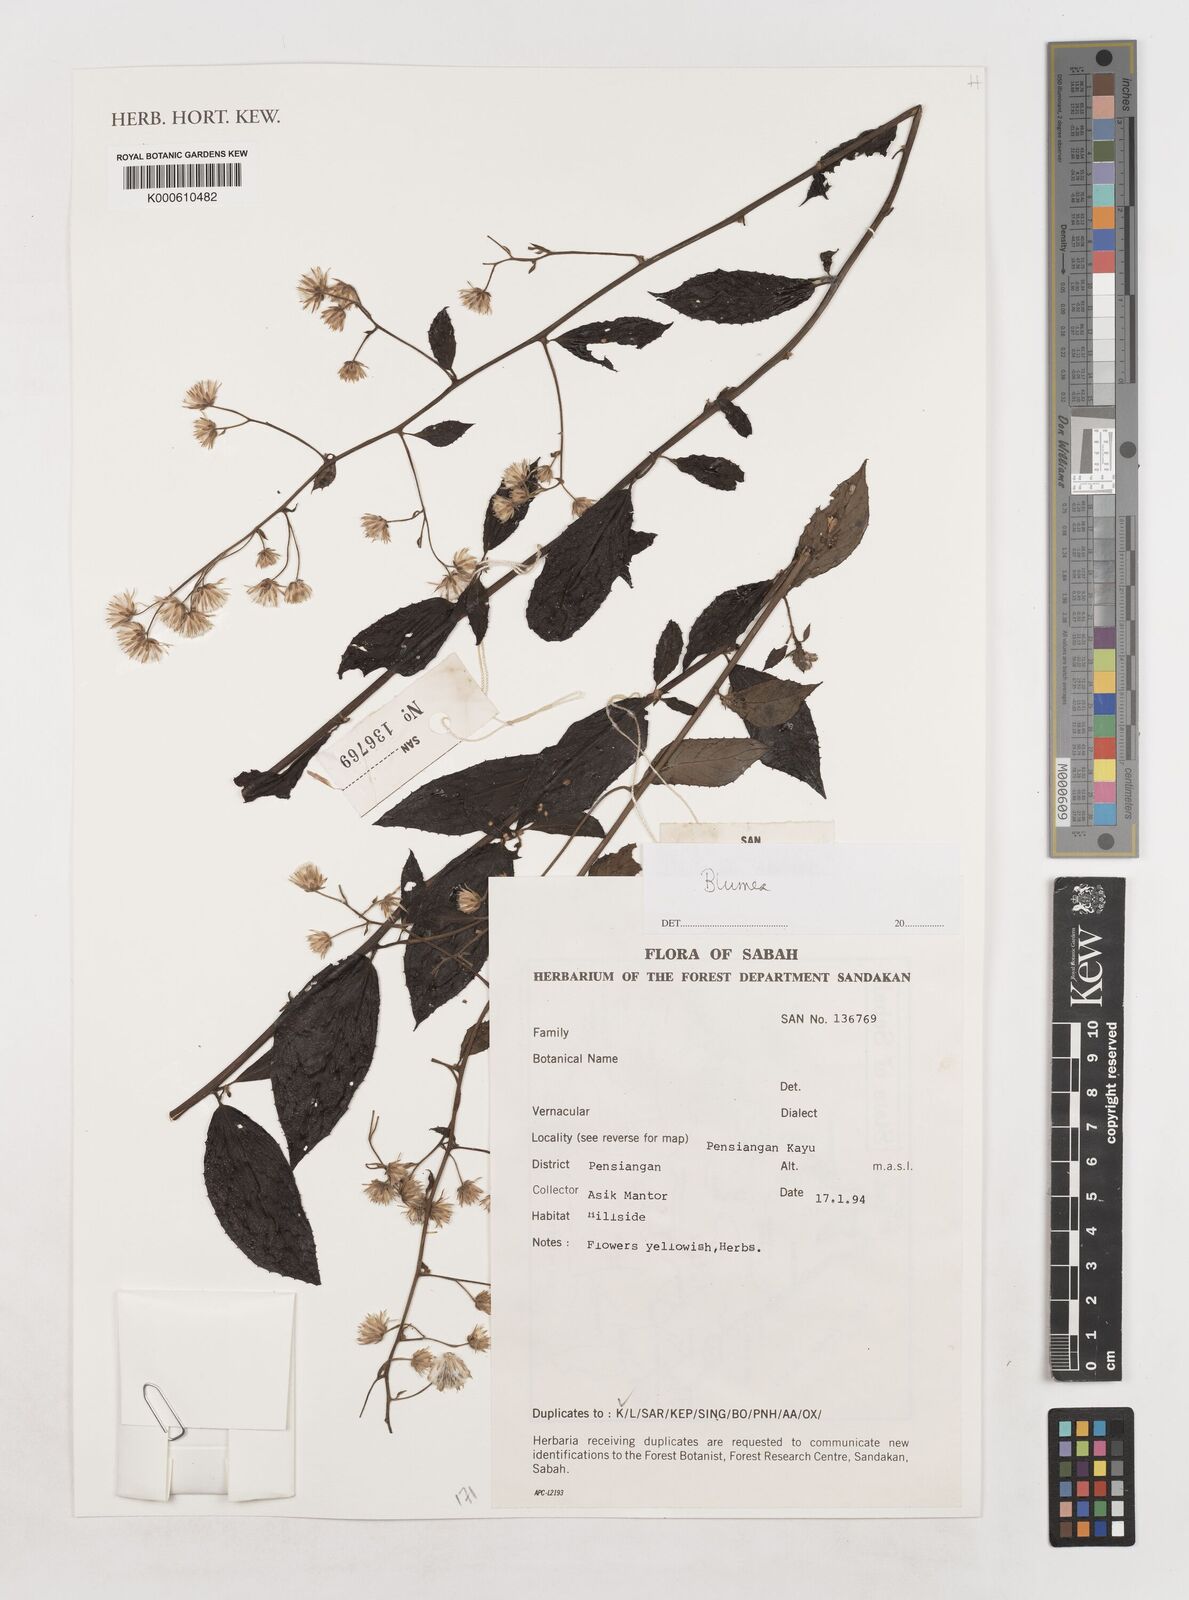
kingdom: Plantae
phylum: Tracheophyta
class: Magnoliopsida
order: Asterales
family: Asteraceae
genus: Blumea
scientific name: Blumea
